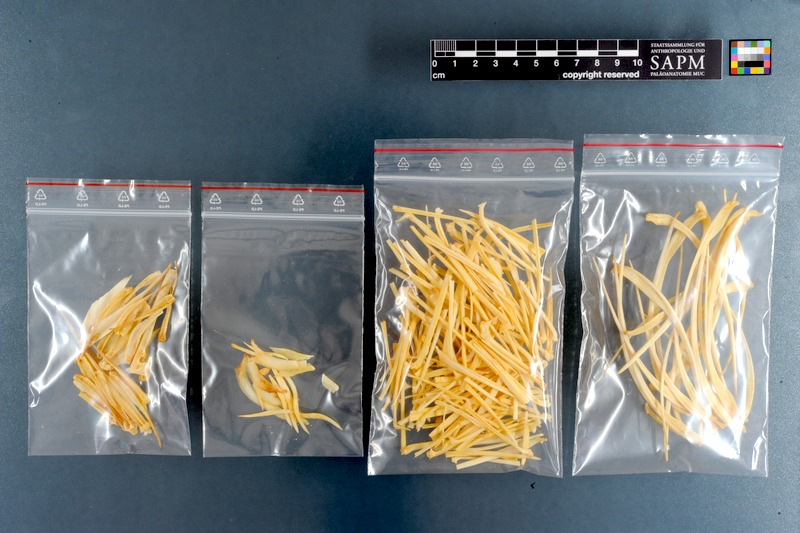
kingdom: Animalia
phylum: Chordata
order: Cypriniformes
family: Cyprinidae
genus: Labeo
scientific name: Labeo horie
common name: Assuan labeo
